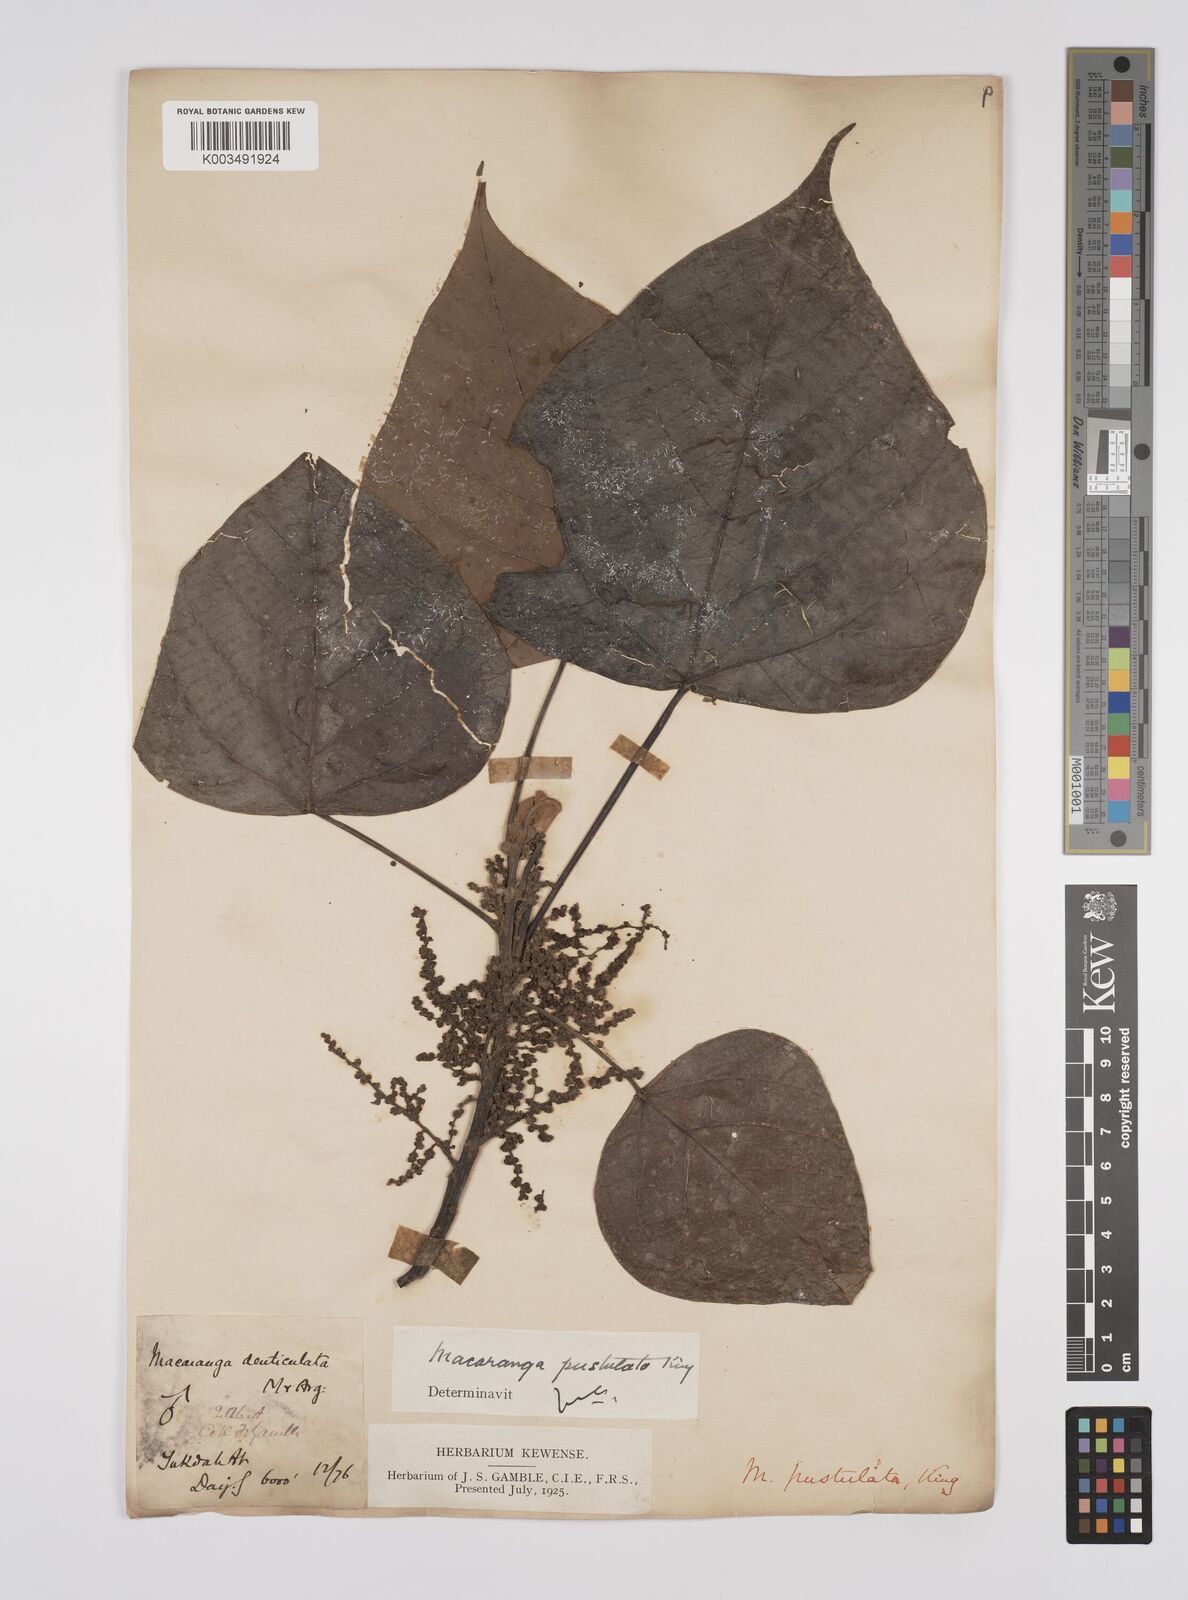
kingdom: Plantae
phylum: Tracheophyta
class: Magnoliopsida
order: Malpighiales
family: Euphorbiaceae
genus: Macaranga
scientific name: Macaranga denticulata
